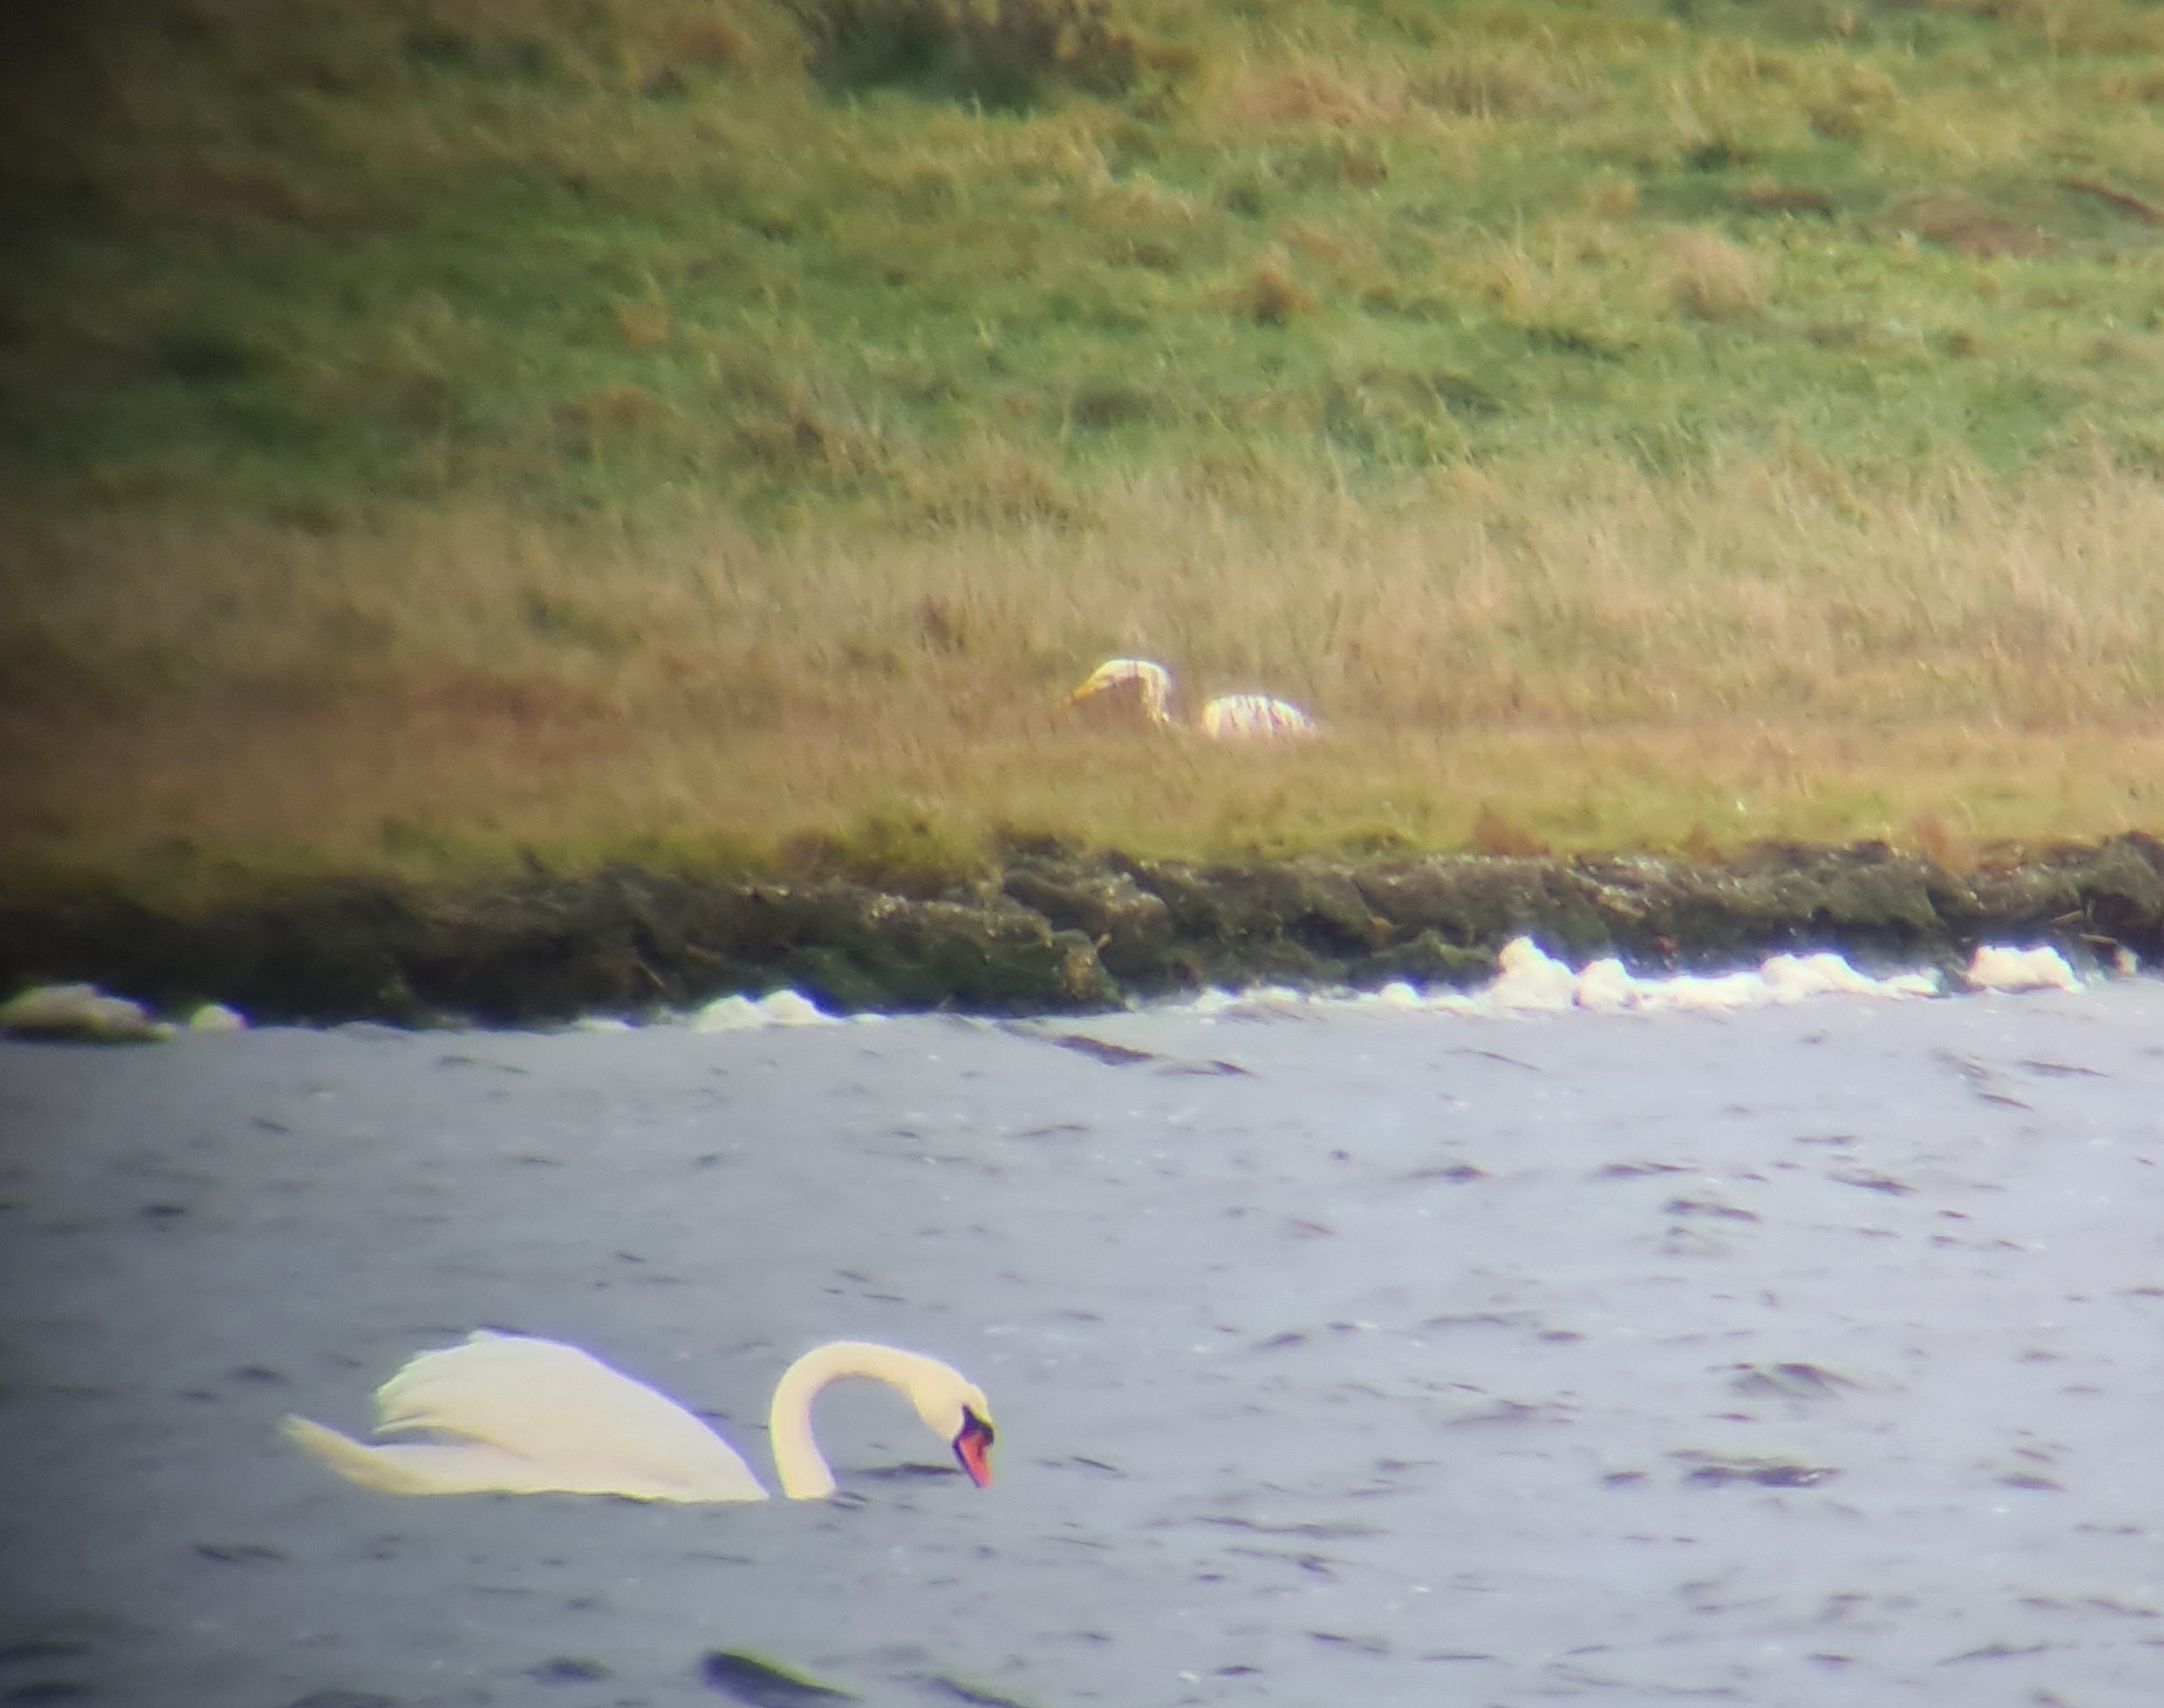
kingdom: Animalia
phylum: Chordata
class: Aves
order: Pelecaniformes
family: Ardeidae
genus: Ardea
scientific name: Ardea alba
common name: Sølvhejre
